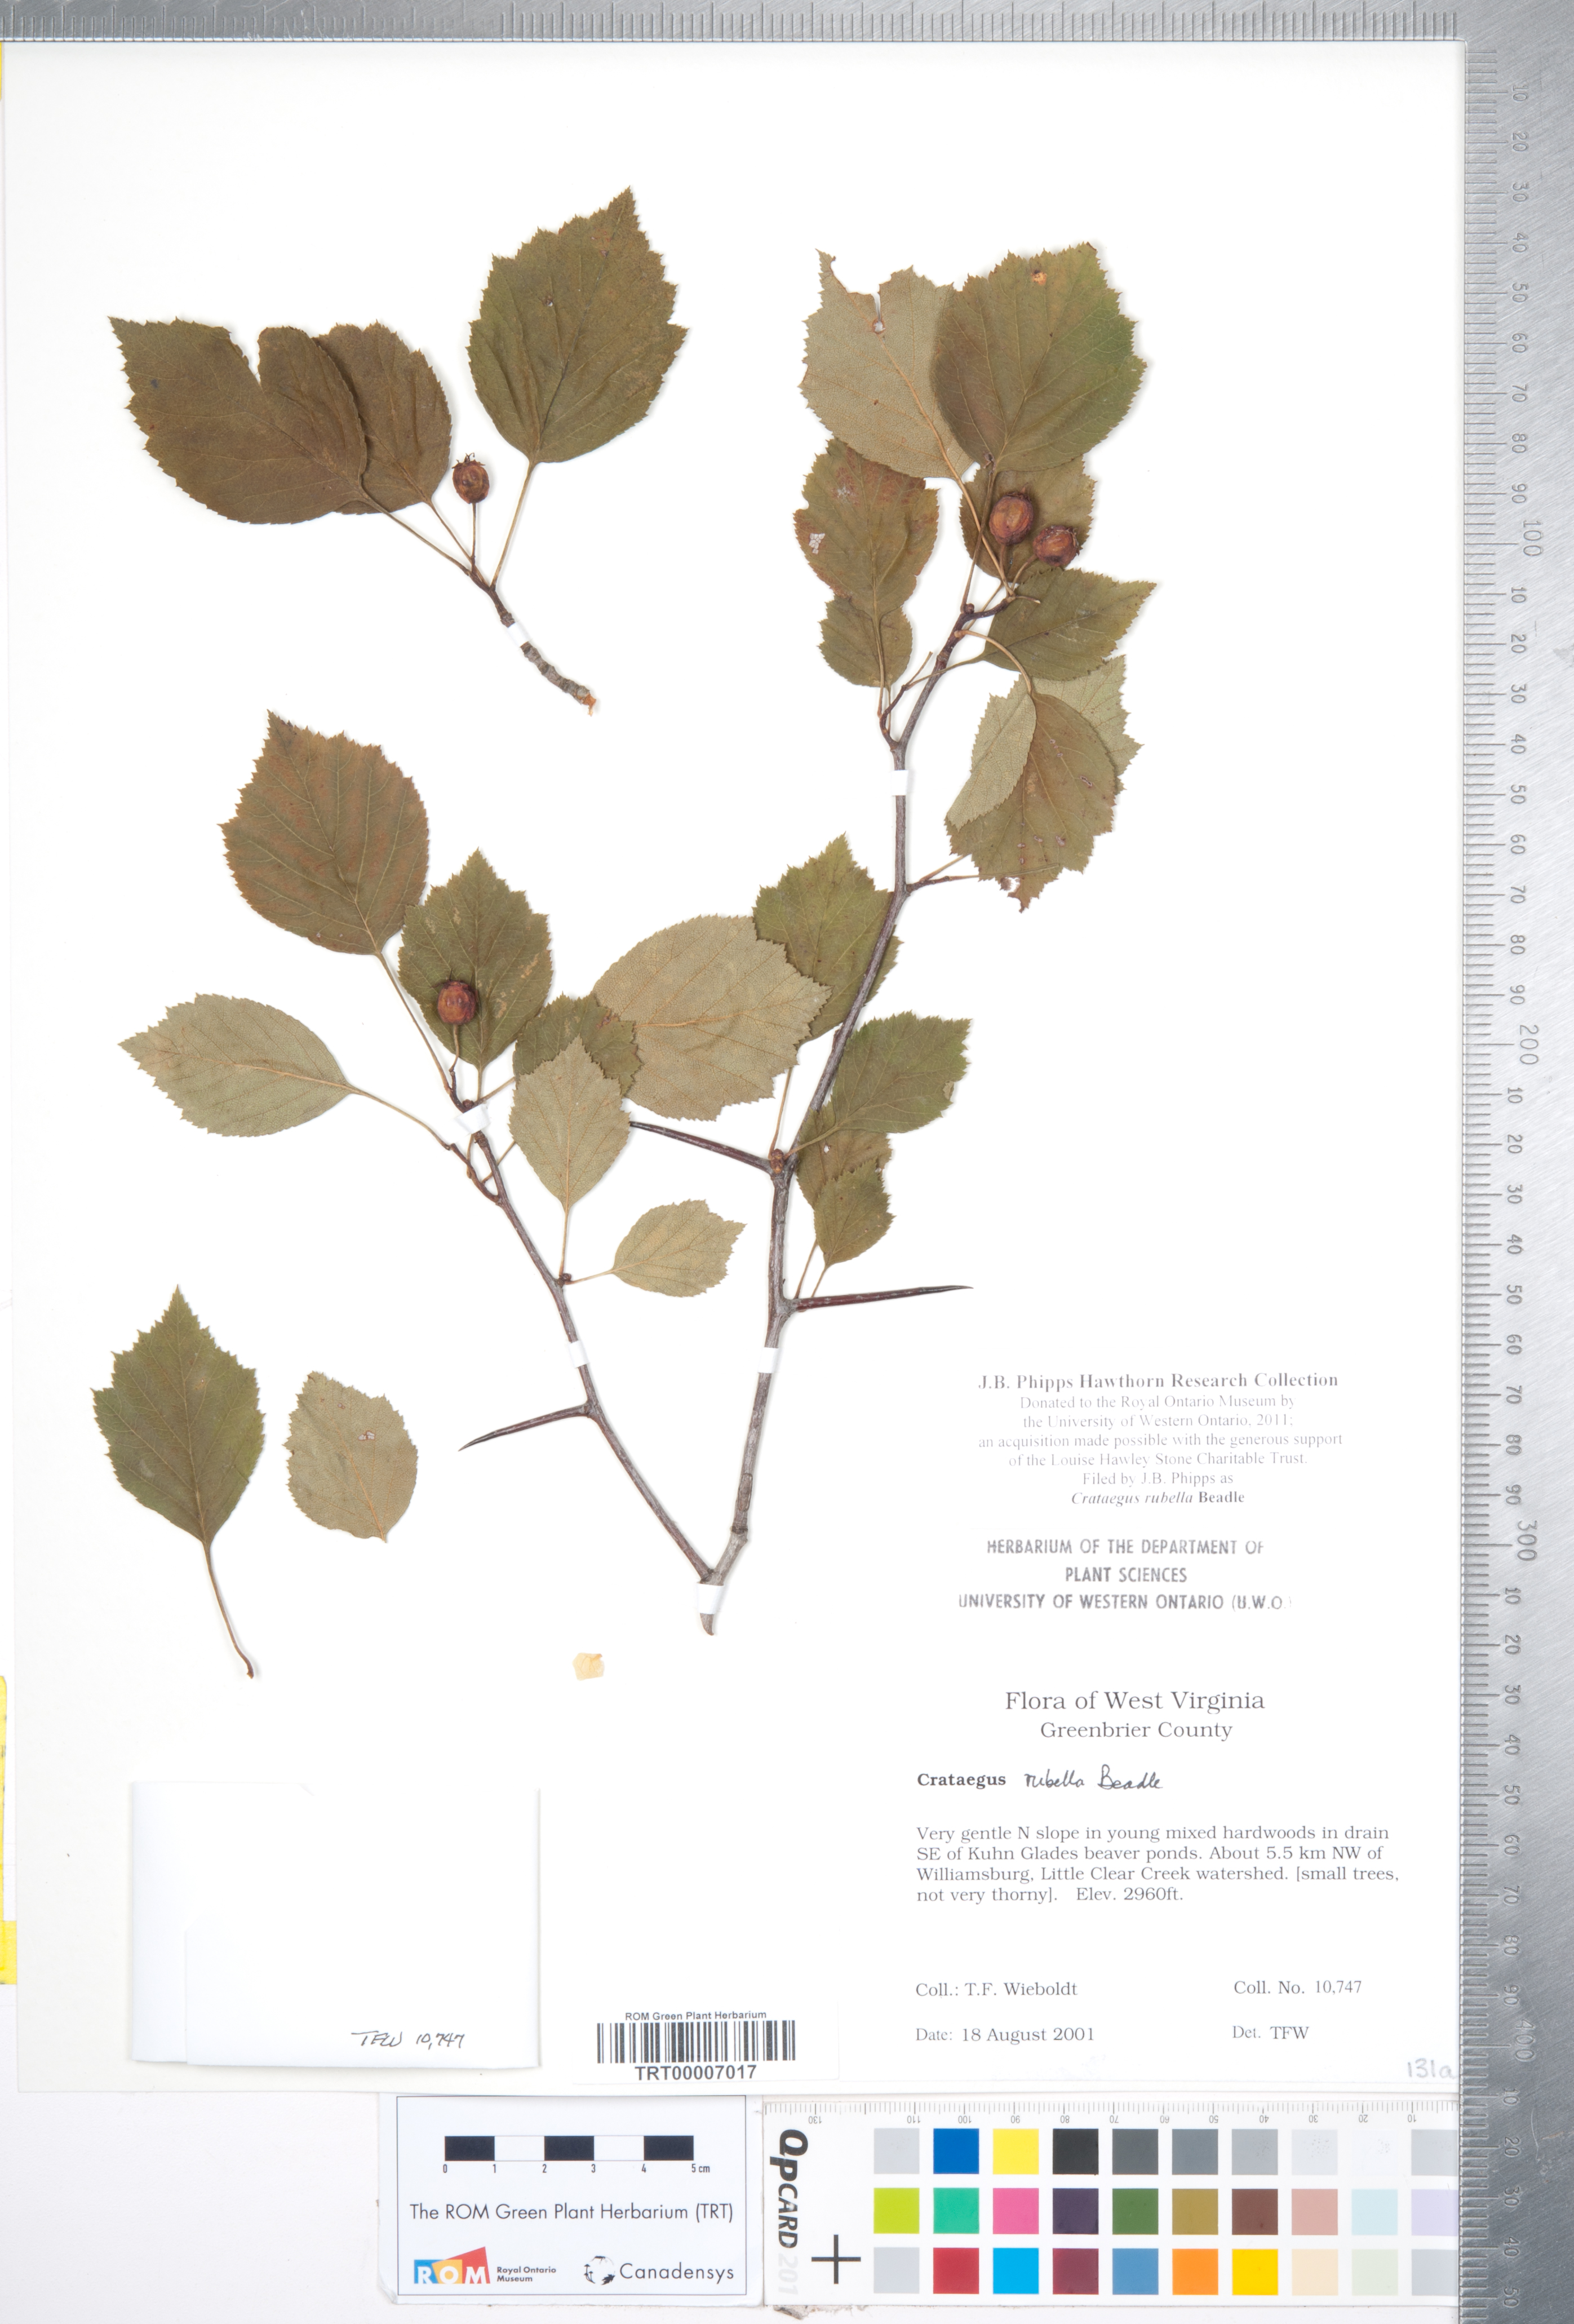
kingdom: Plantae
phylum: Tracheophyta
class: Magnoliopsida
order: Rosales
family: Rosaceae
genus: Crataegus
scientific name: Crataegus intricata
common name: Biltmore hawthorn
